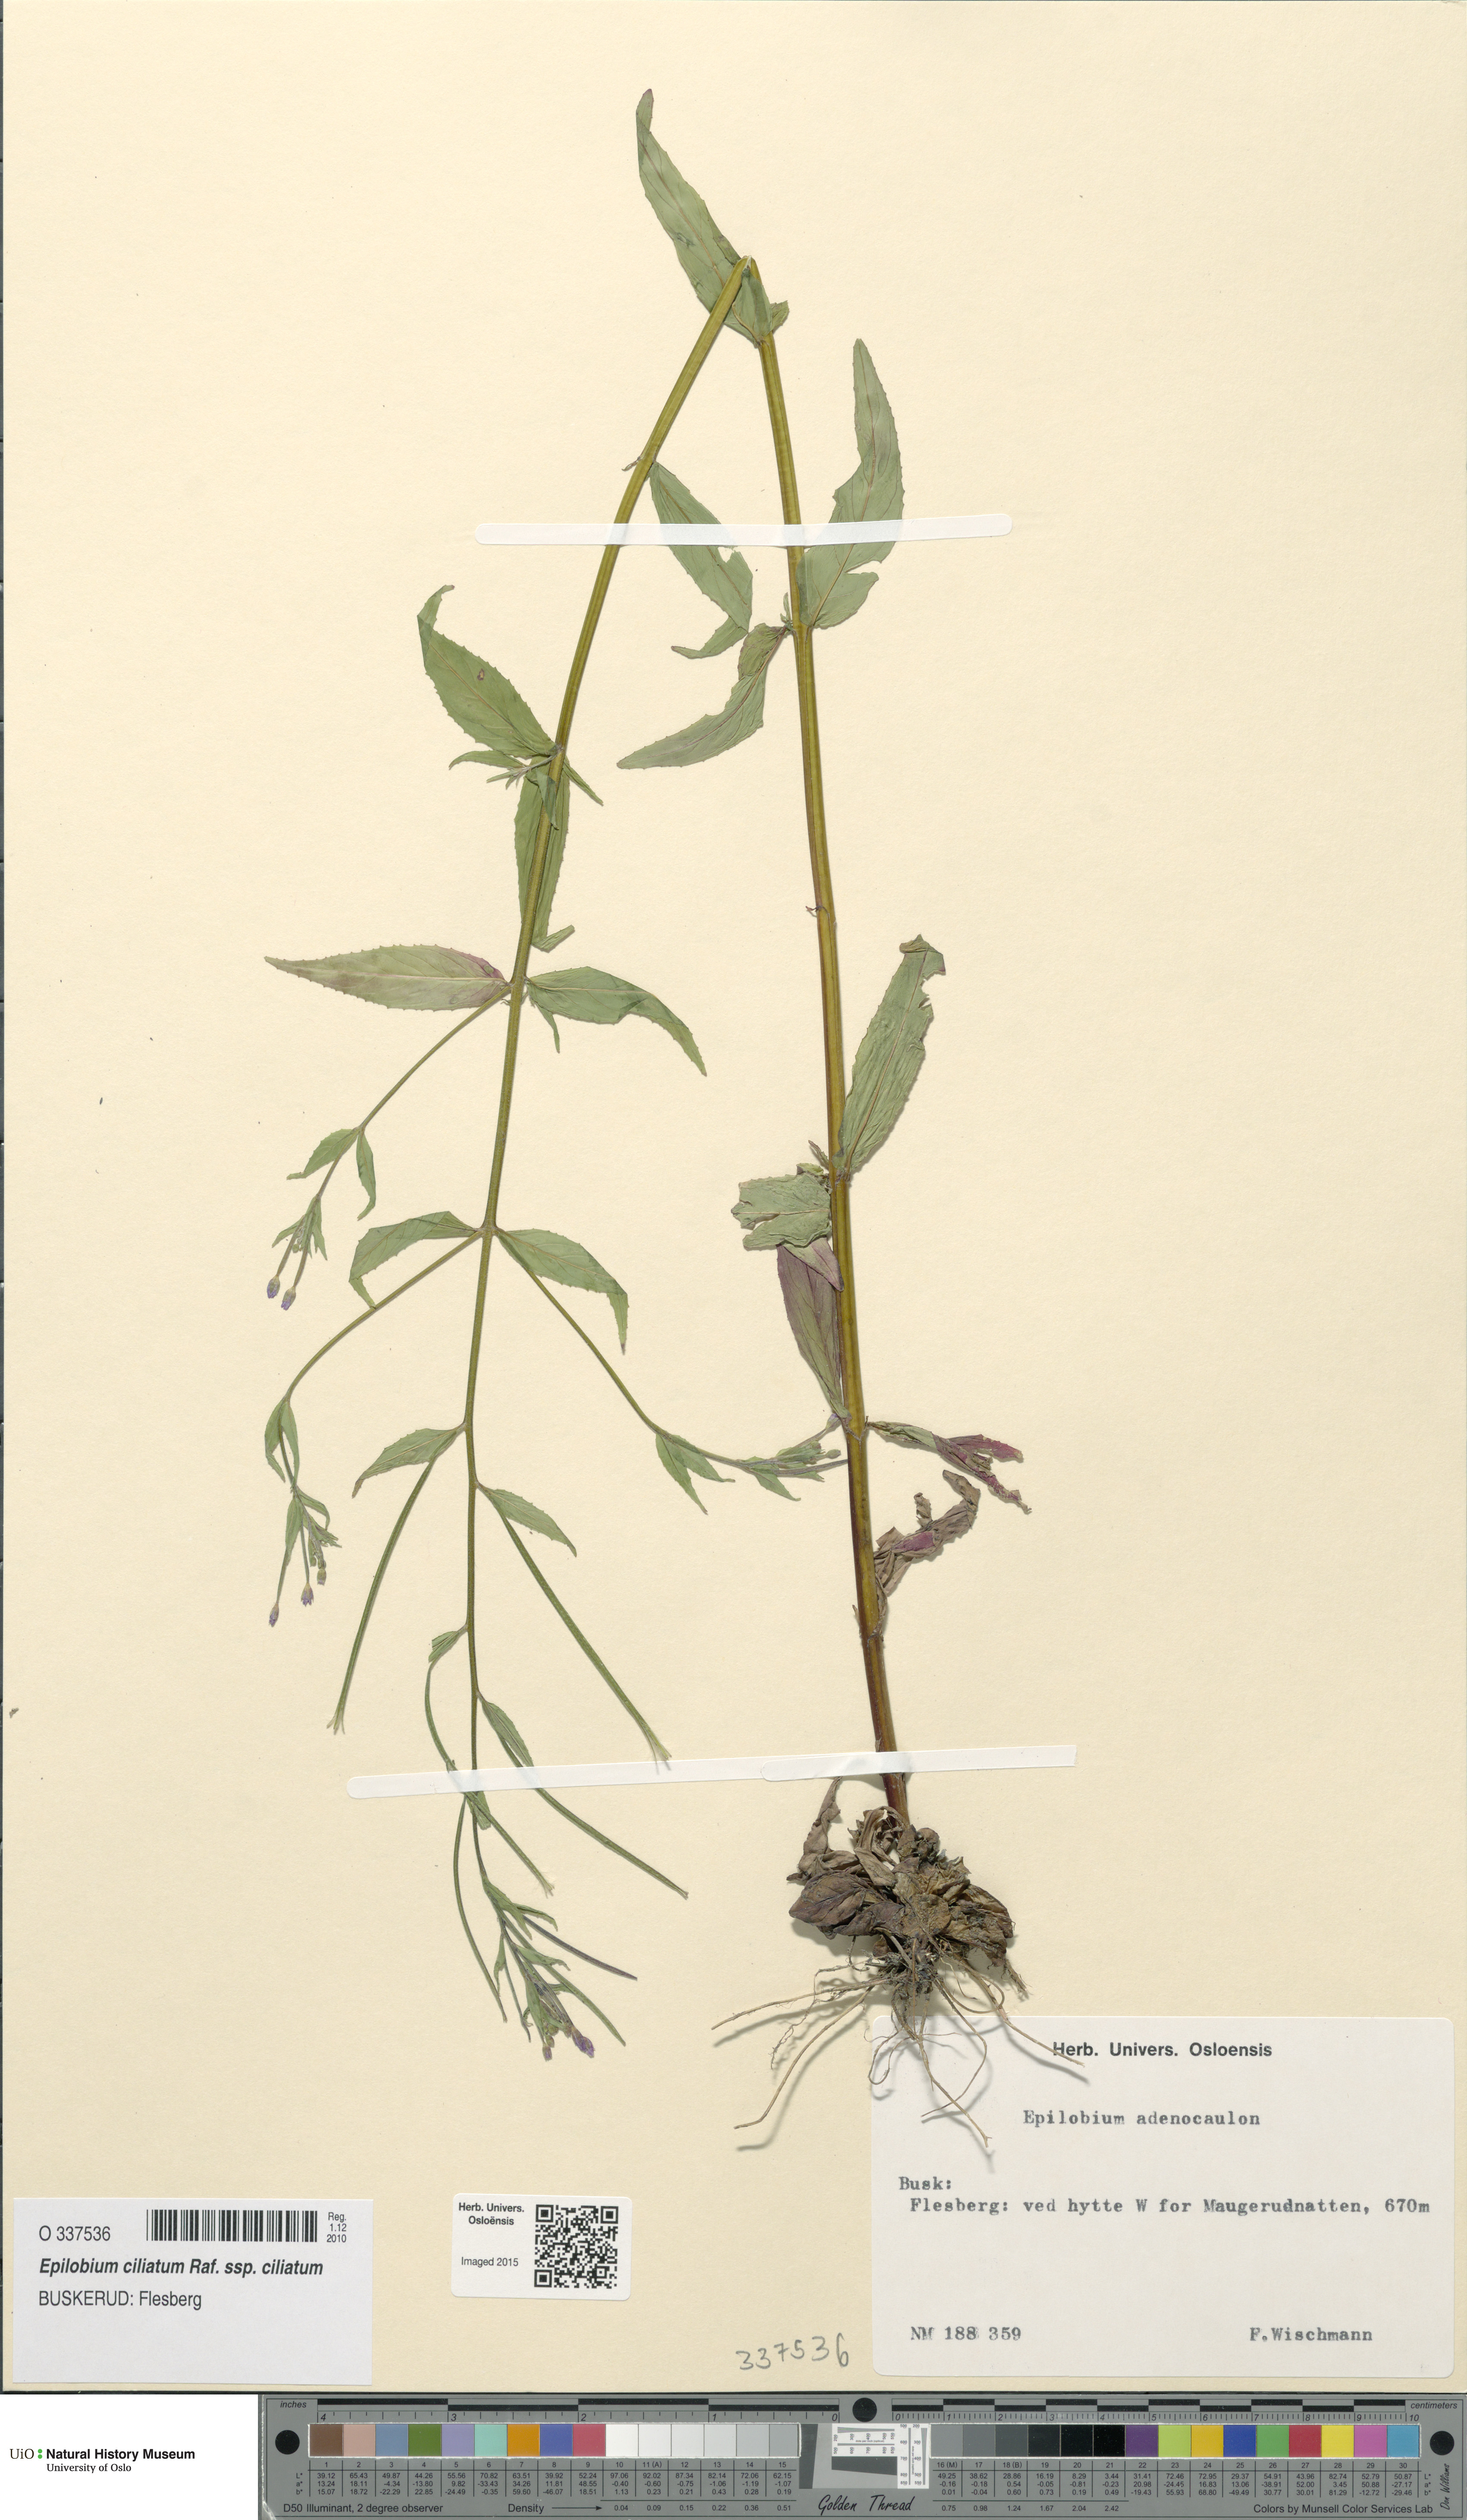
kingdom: Plantae
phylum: Tracheophyta
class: Magnoliopsida
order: Myrtales
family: Onagraceae
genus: Epilobium
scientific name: Epilobium ciliatum
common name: American willowherb
